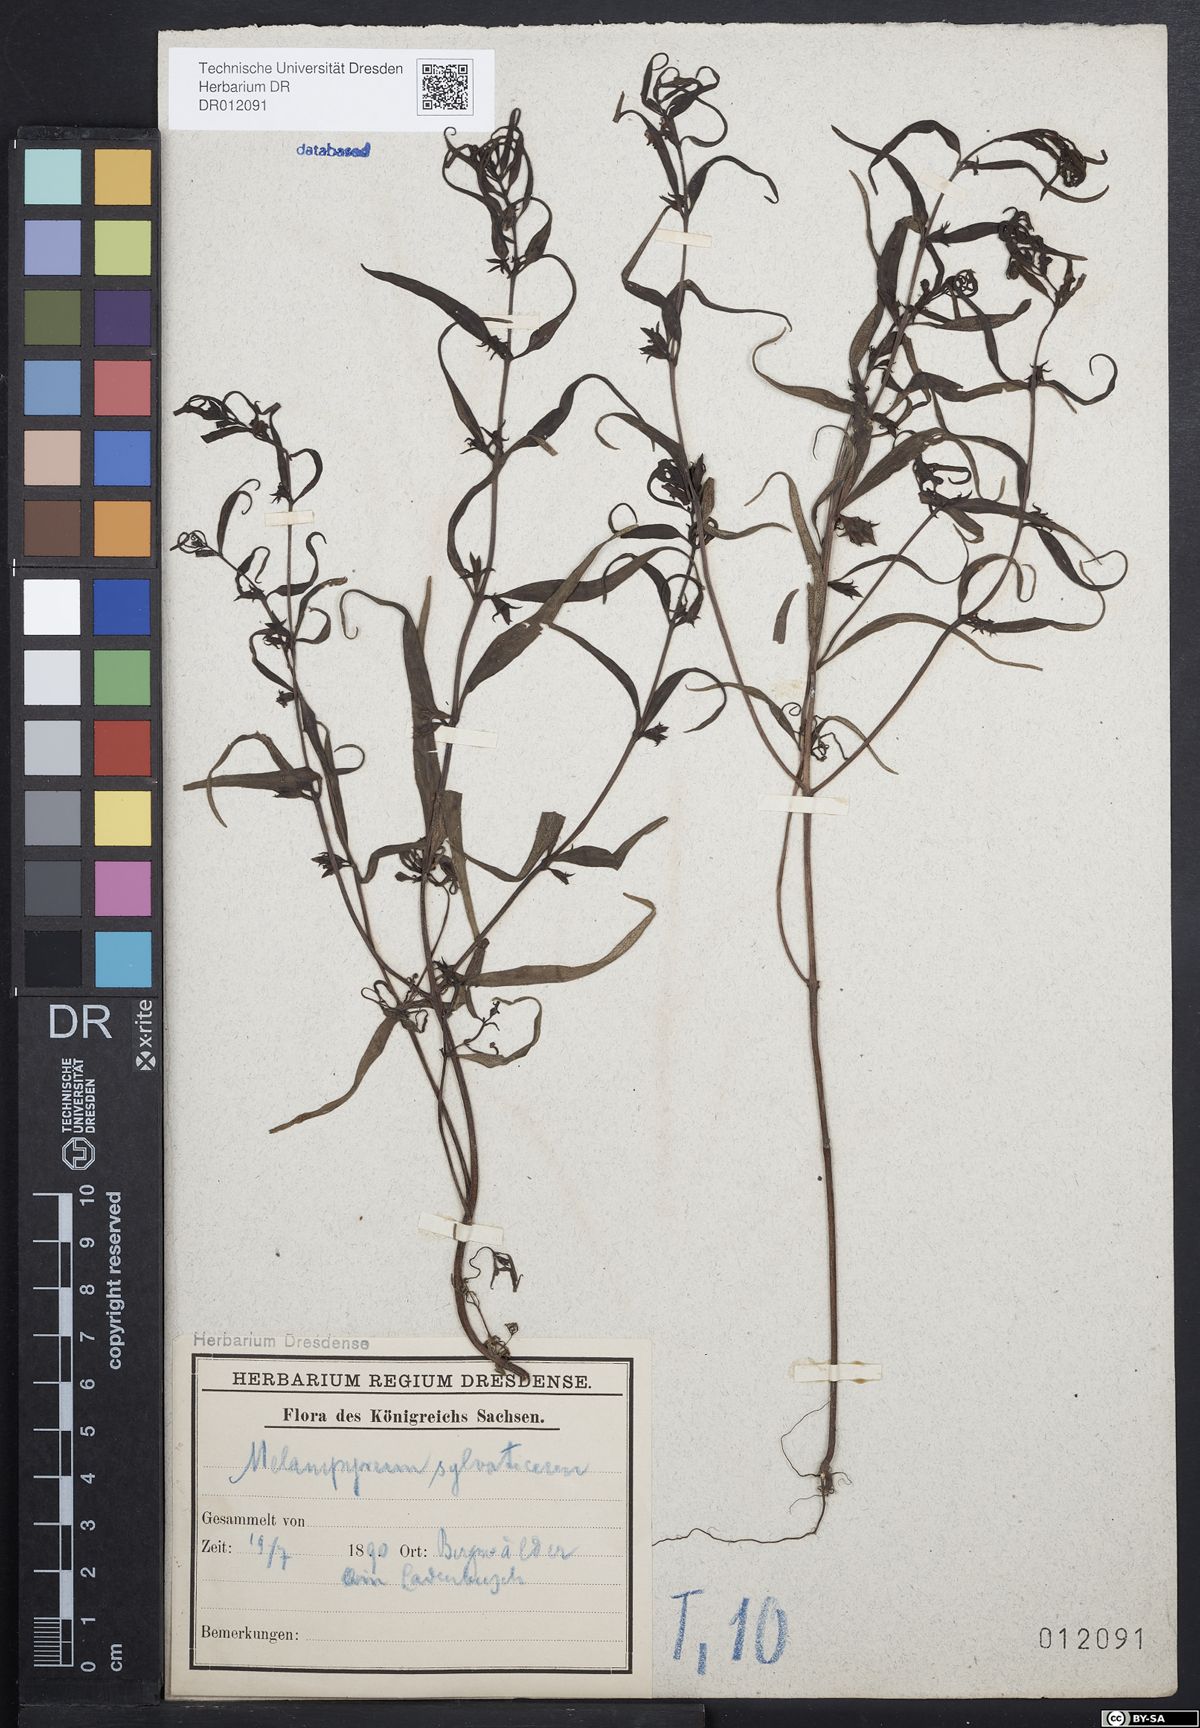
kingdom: Plantae
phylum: Tracheophyta
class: Magnoliopsida
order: Lamiales
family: Orobanchaceae
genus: Melampyrum
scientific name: Melampyrum sylvaticum
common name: Small cow-wheat
